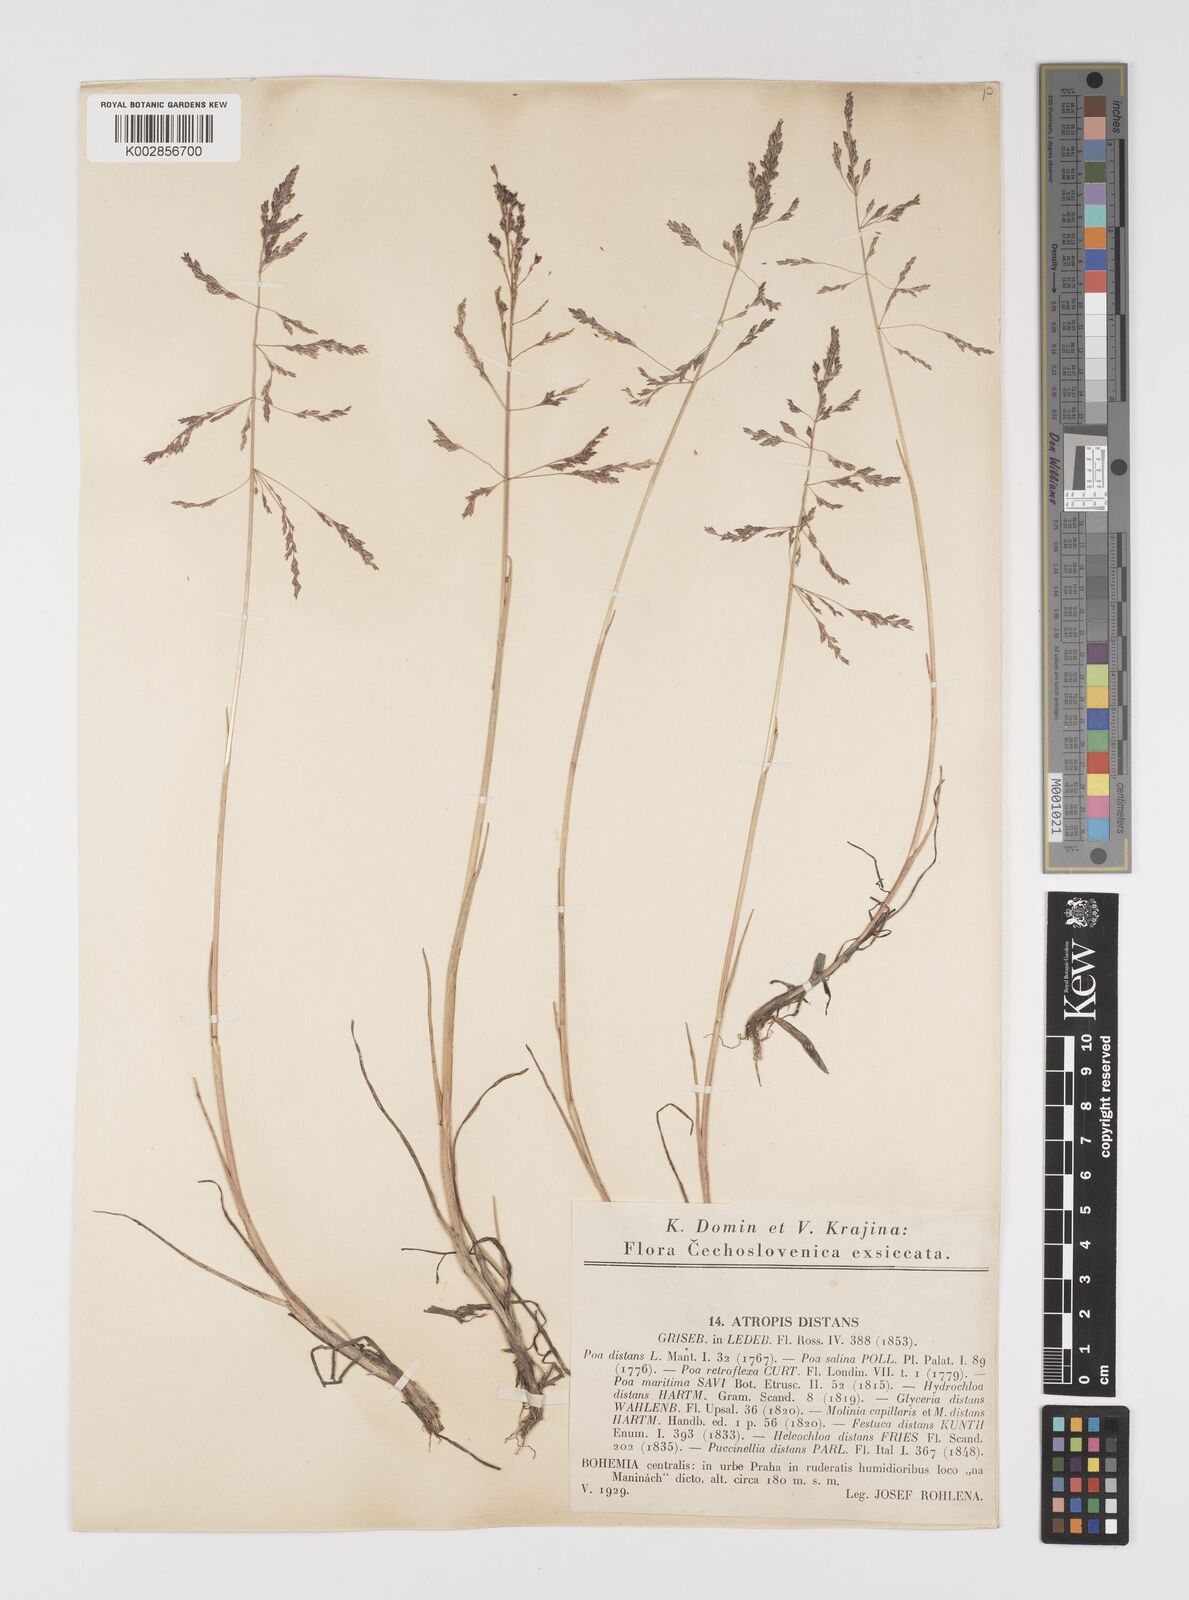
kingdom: Plantae
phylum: Tracheophyta
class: Liliopsida
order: Poales
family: Poaceae
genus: Puccinellia
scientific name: Puccinellia distans
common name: Weeping alkaligrass
